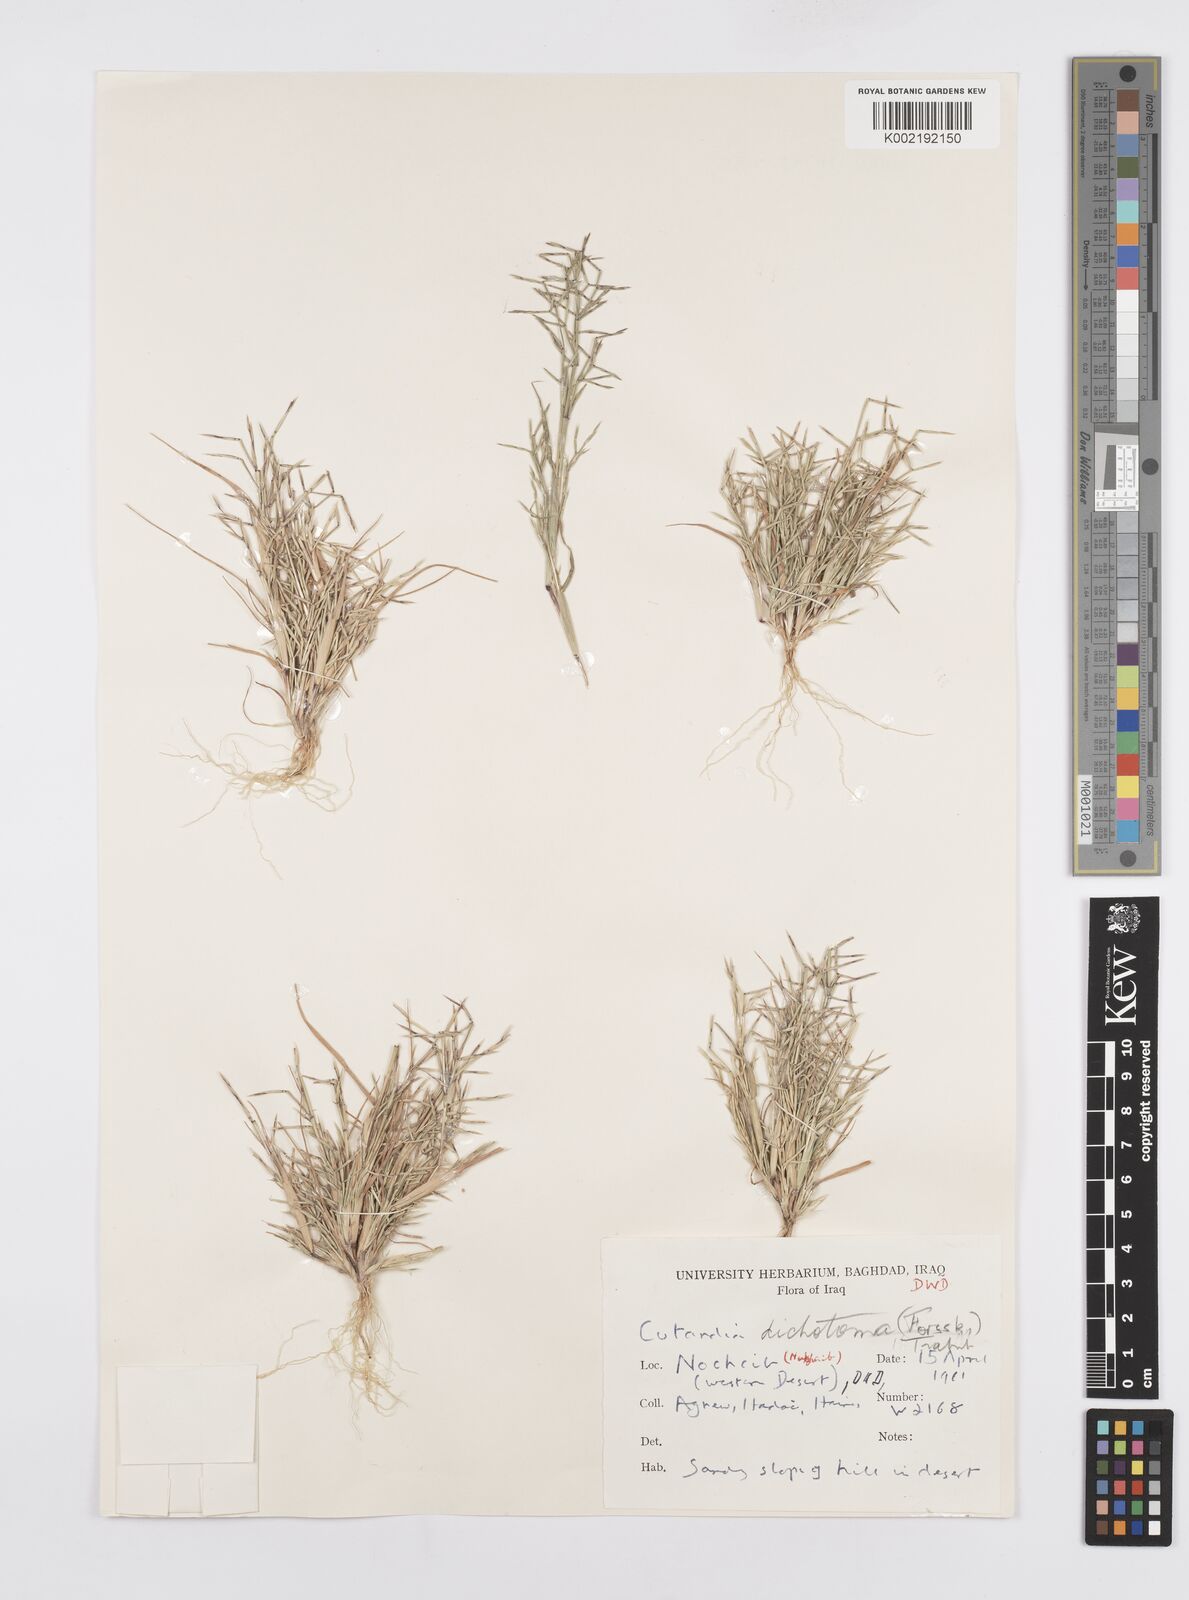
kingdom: Plantae
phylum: Tracheophyta
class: Liliopsida
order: Poales
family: Poaceae
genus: Cutandia
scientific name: Cutandia dichotoma
